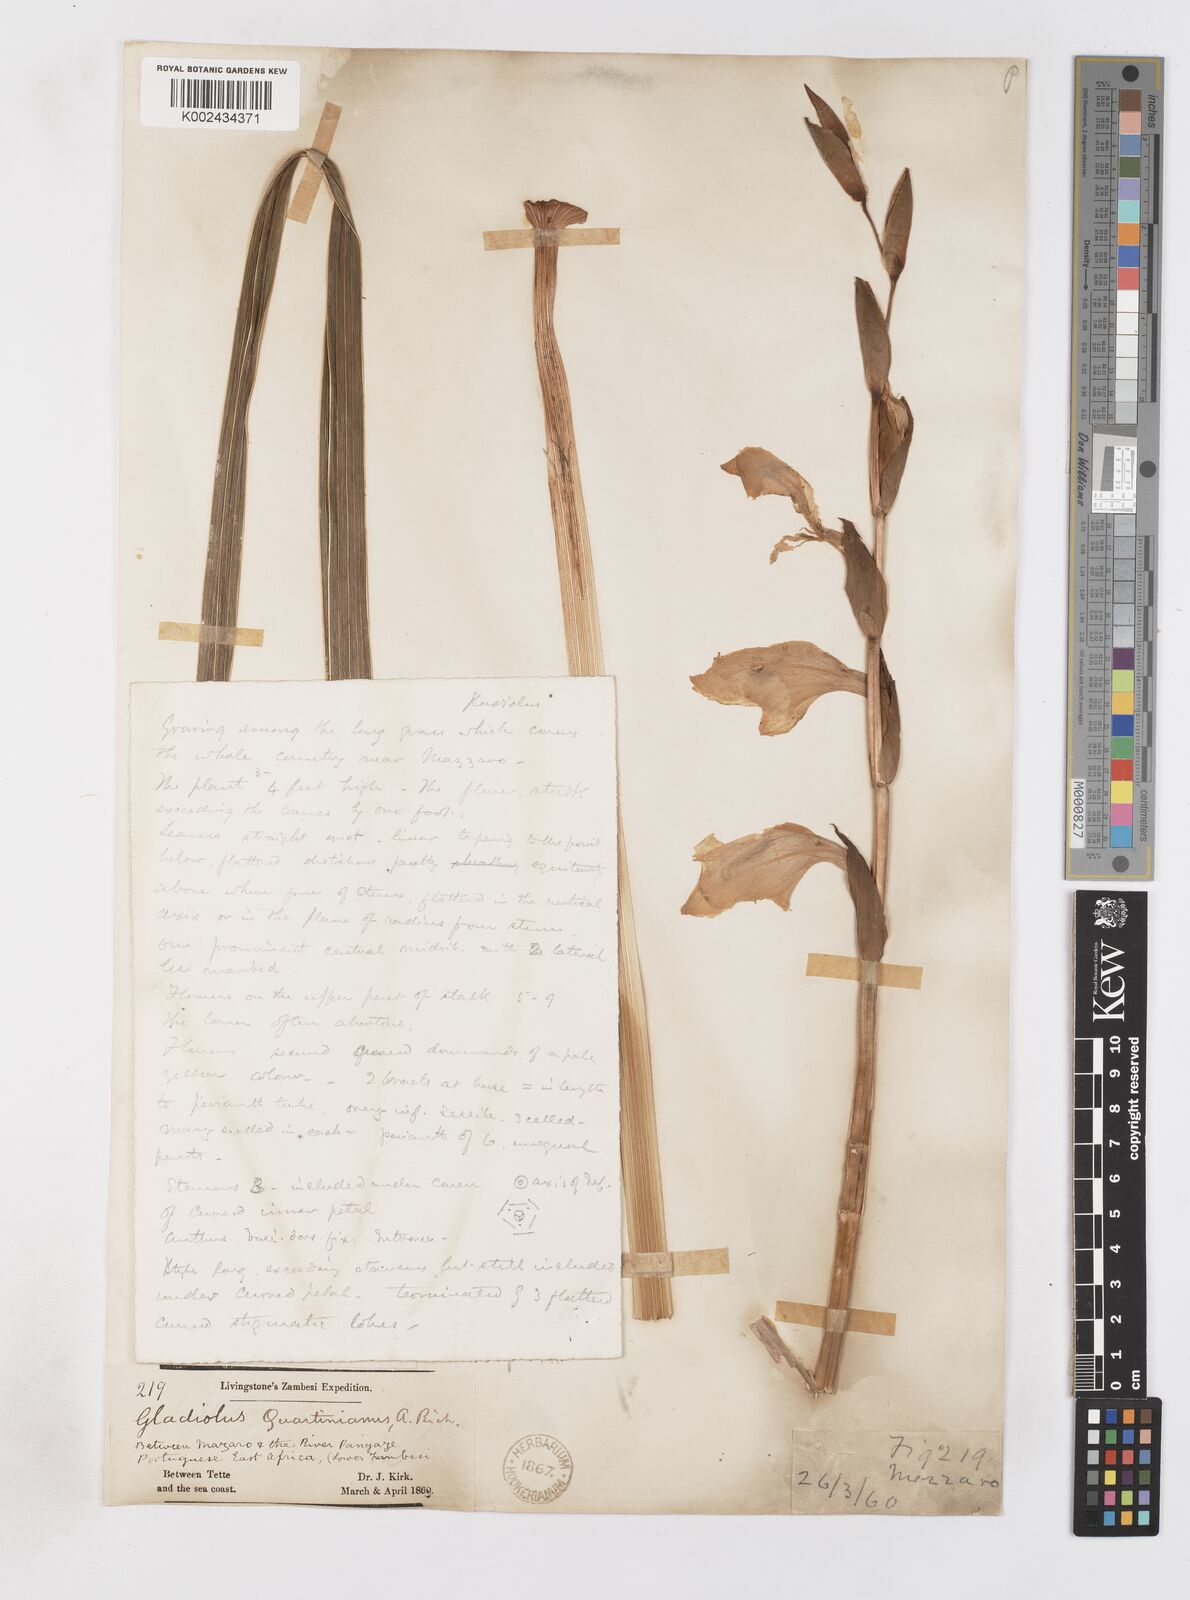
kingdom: Plantae
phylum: Tracheophyta
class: Liliopsida
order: Asparagales
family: Iridaceae
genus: Gladiolus
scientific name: Gladiolus dalenii
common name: Cornflag
